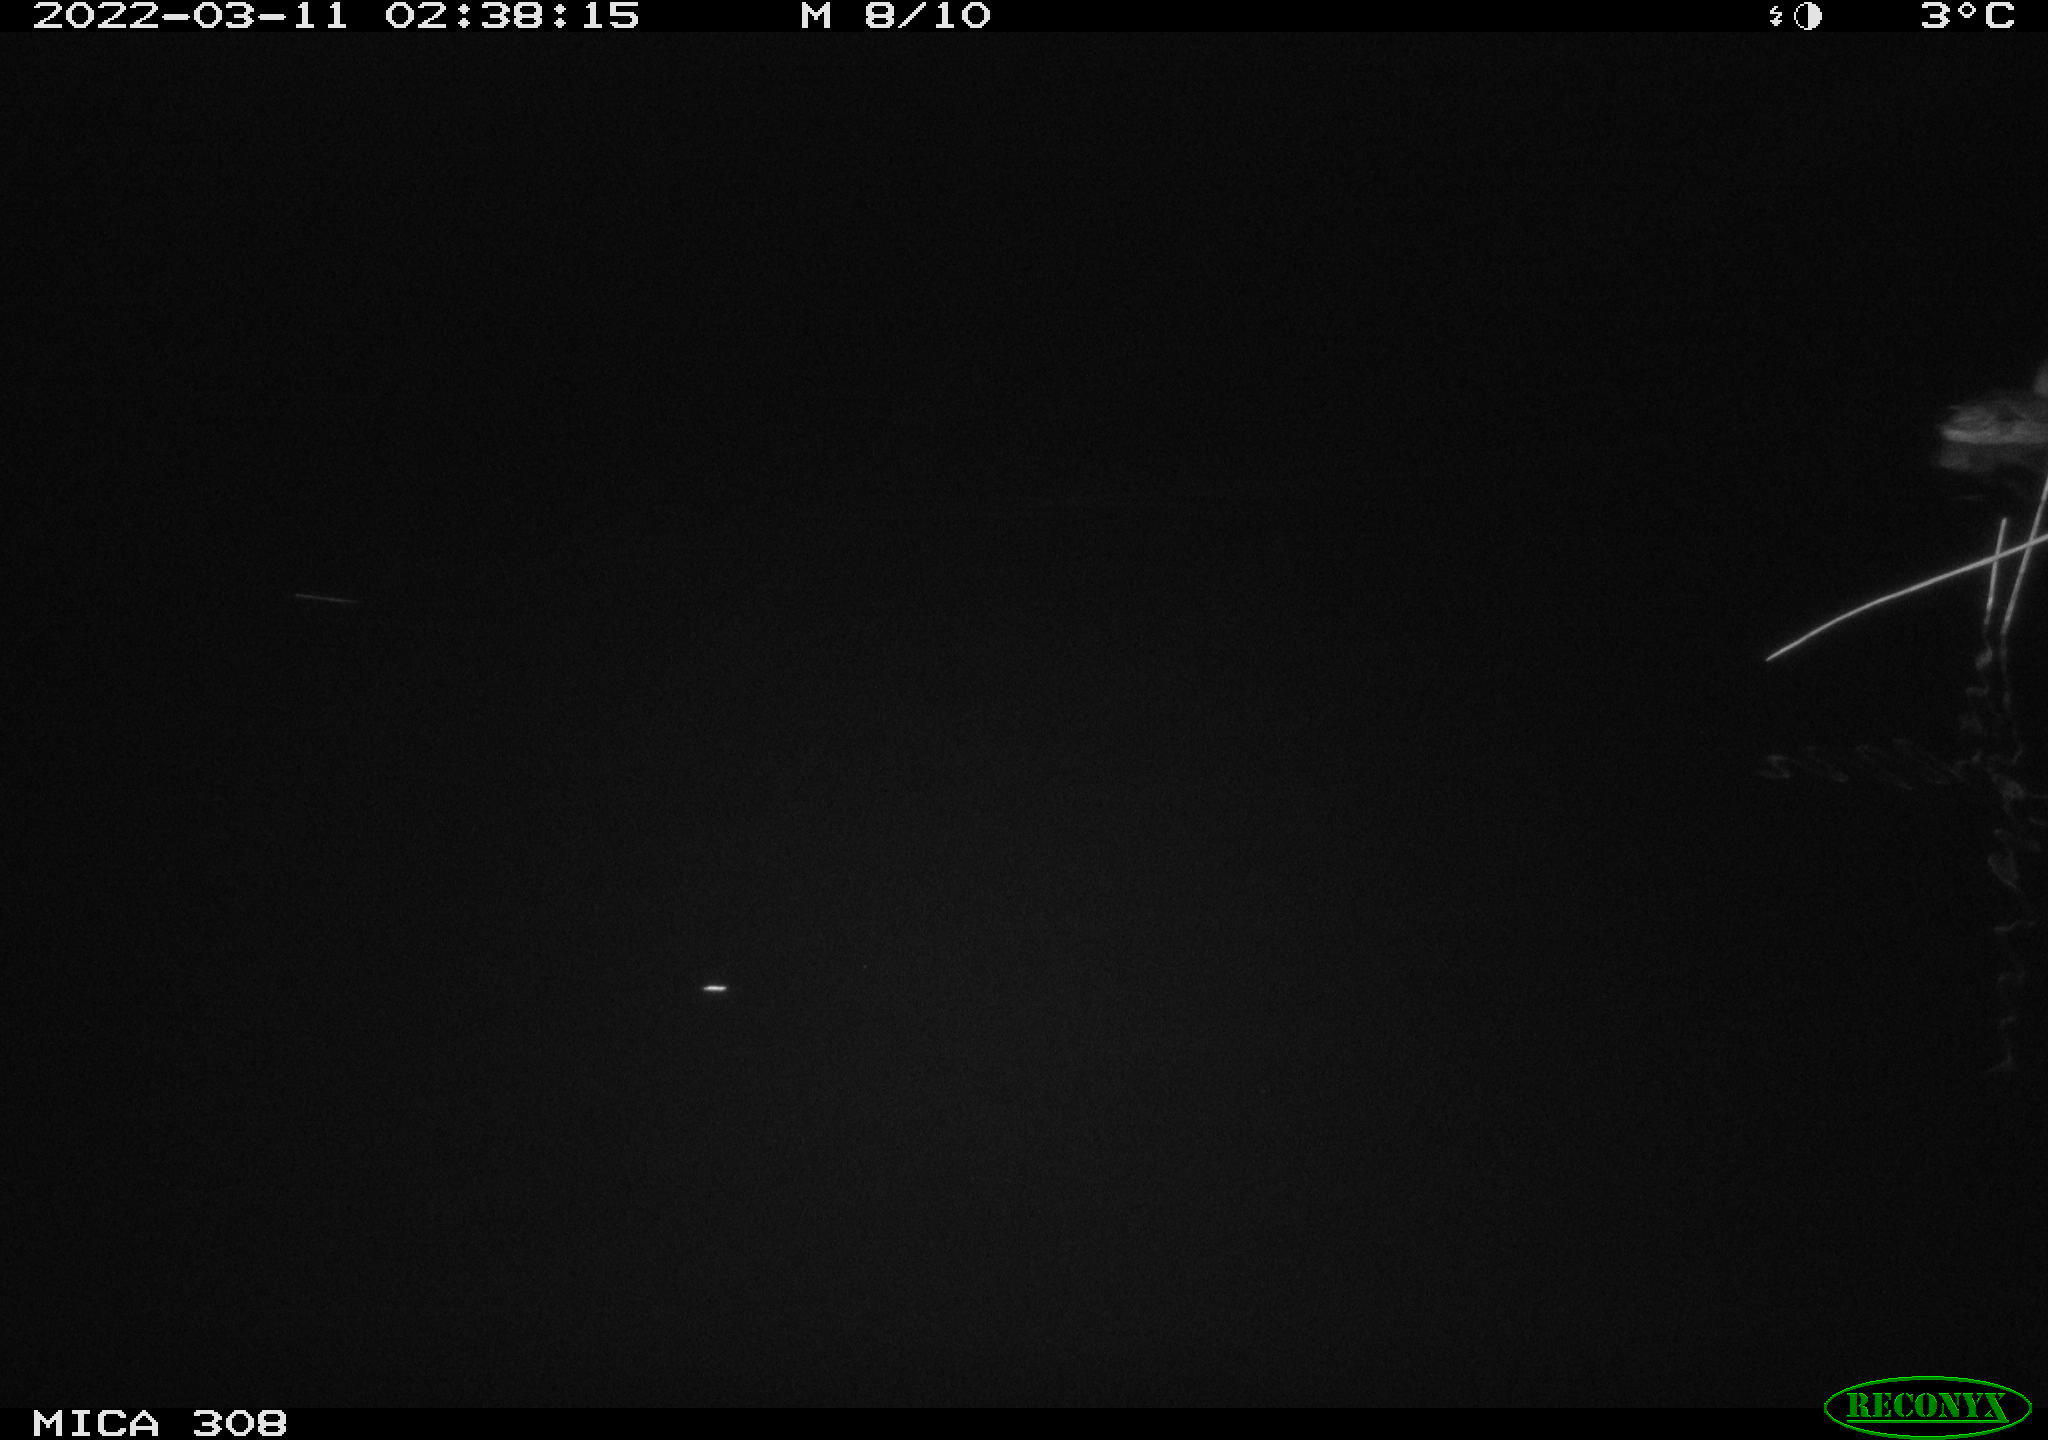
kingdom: Animalia
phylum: Chordata
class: Aves
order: Anseriformes
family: Anatidae
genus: Anas
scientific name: Anas platyrhynchos
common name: Mallard
